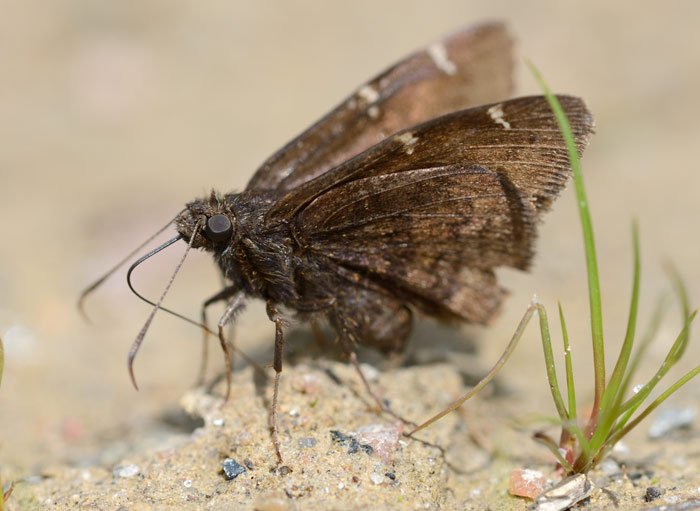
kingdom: Animalia
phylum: Arthropoda
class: Insecta
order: Lepidoptera
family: Hesperiidae
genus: Autochton
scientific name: Autochton
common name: Northern Cloudywing
